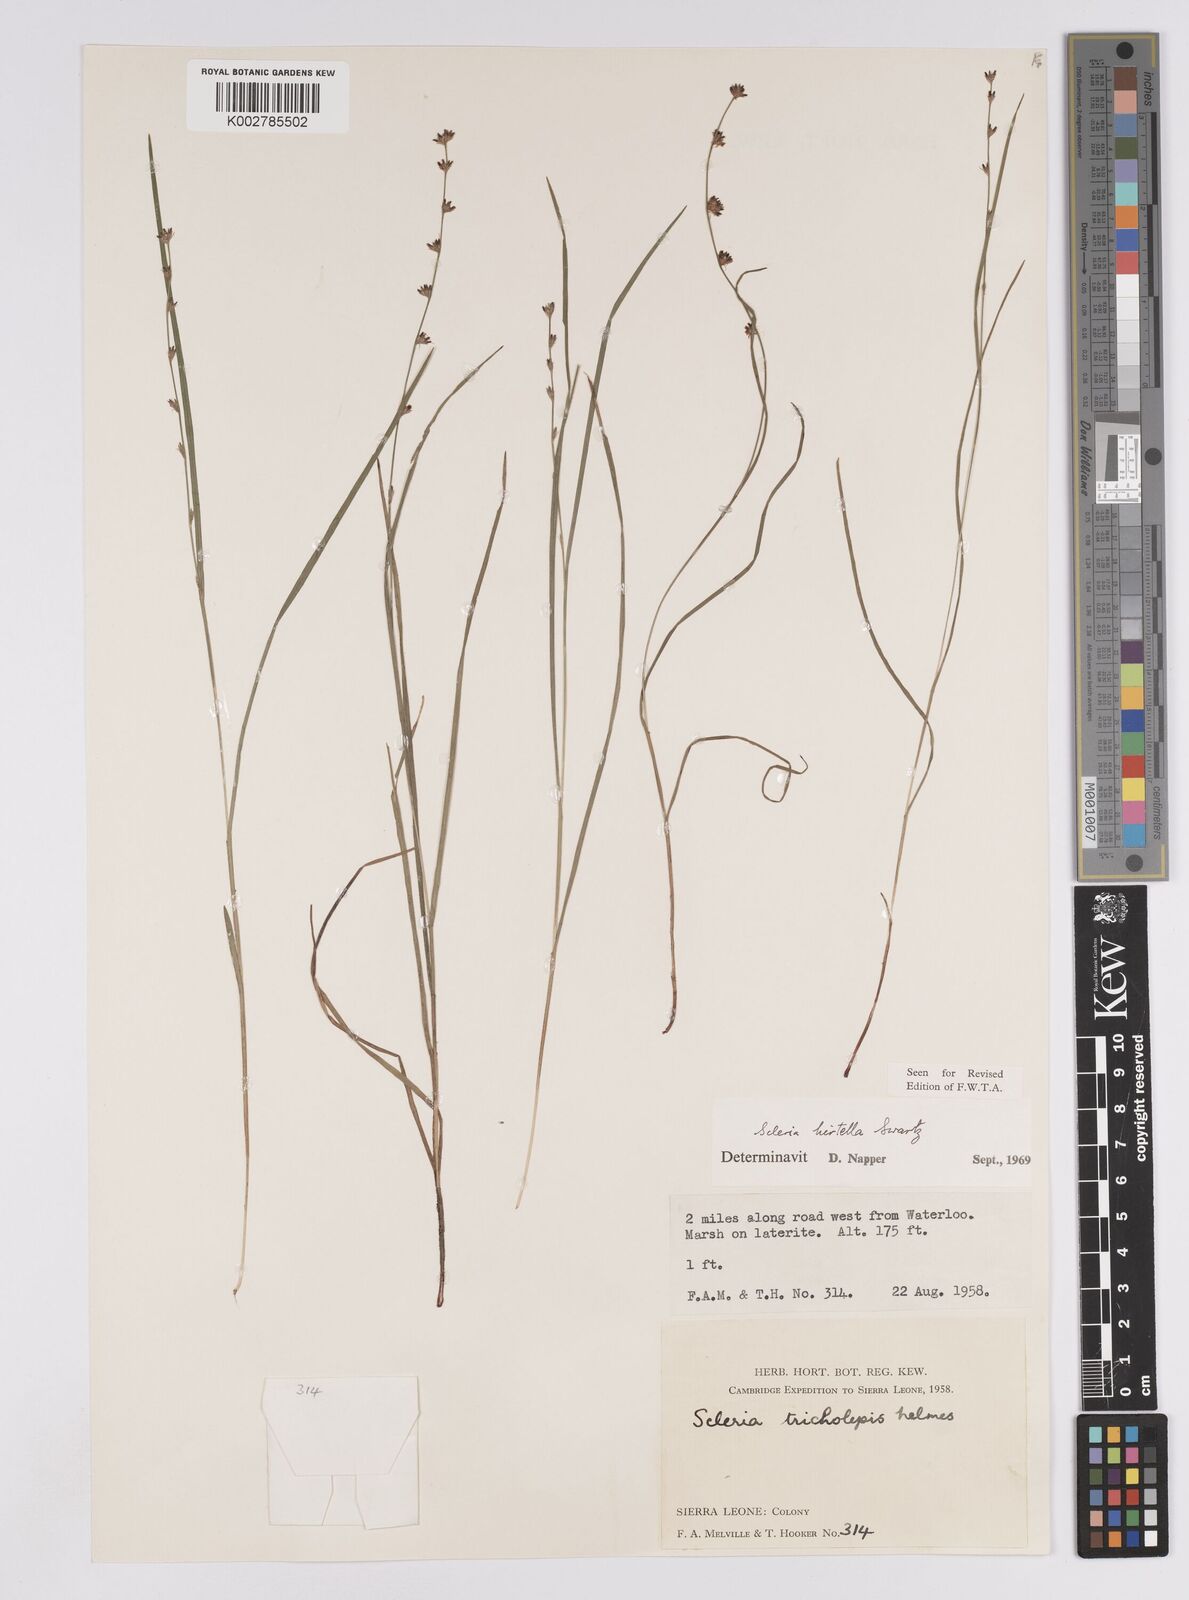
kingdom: Plantae
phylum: Tracheophyta
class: Liliopsida
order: Poales
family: Cyperaceae
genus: Scleria
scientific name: Scleria tricholepis
